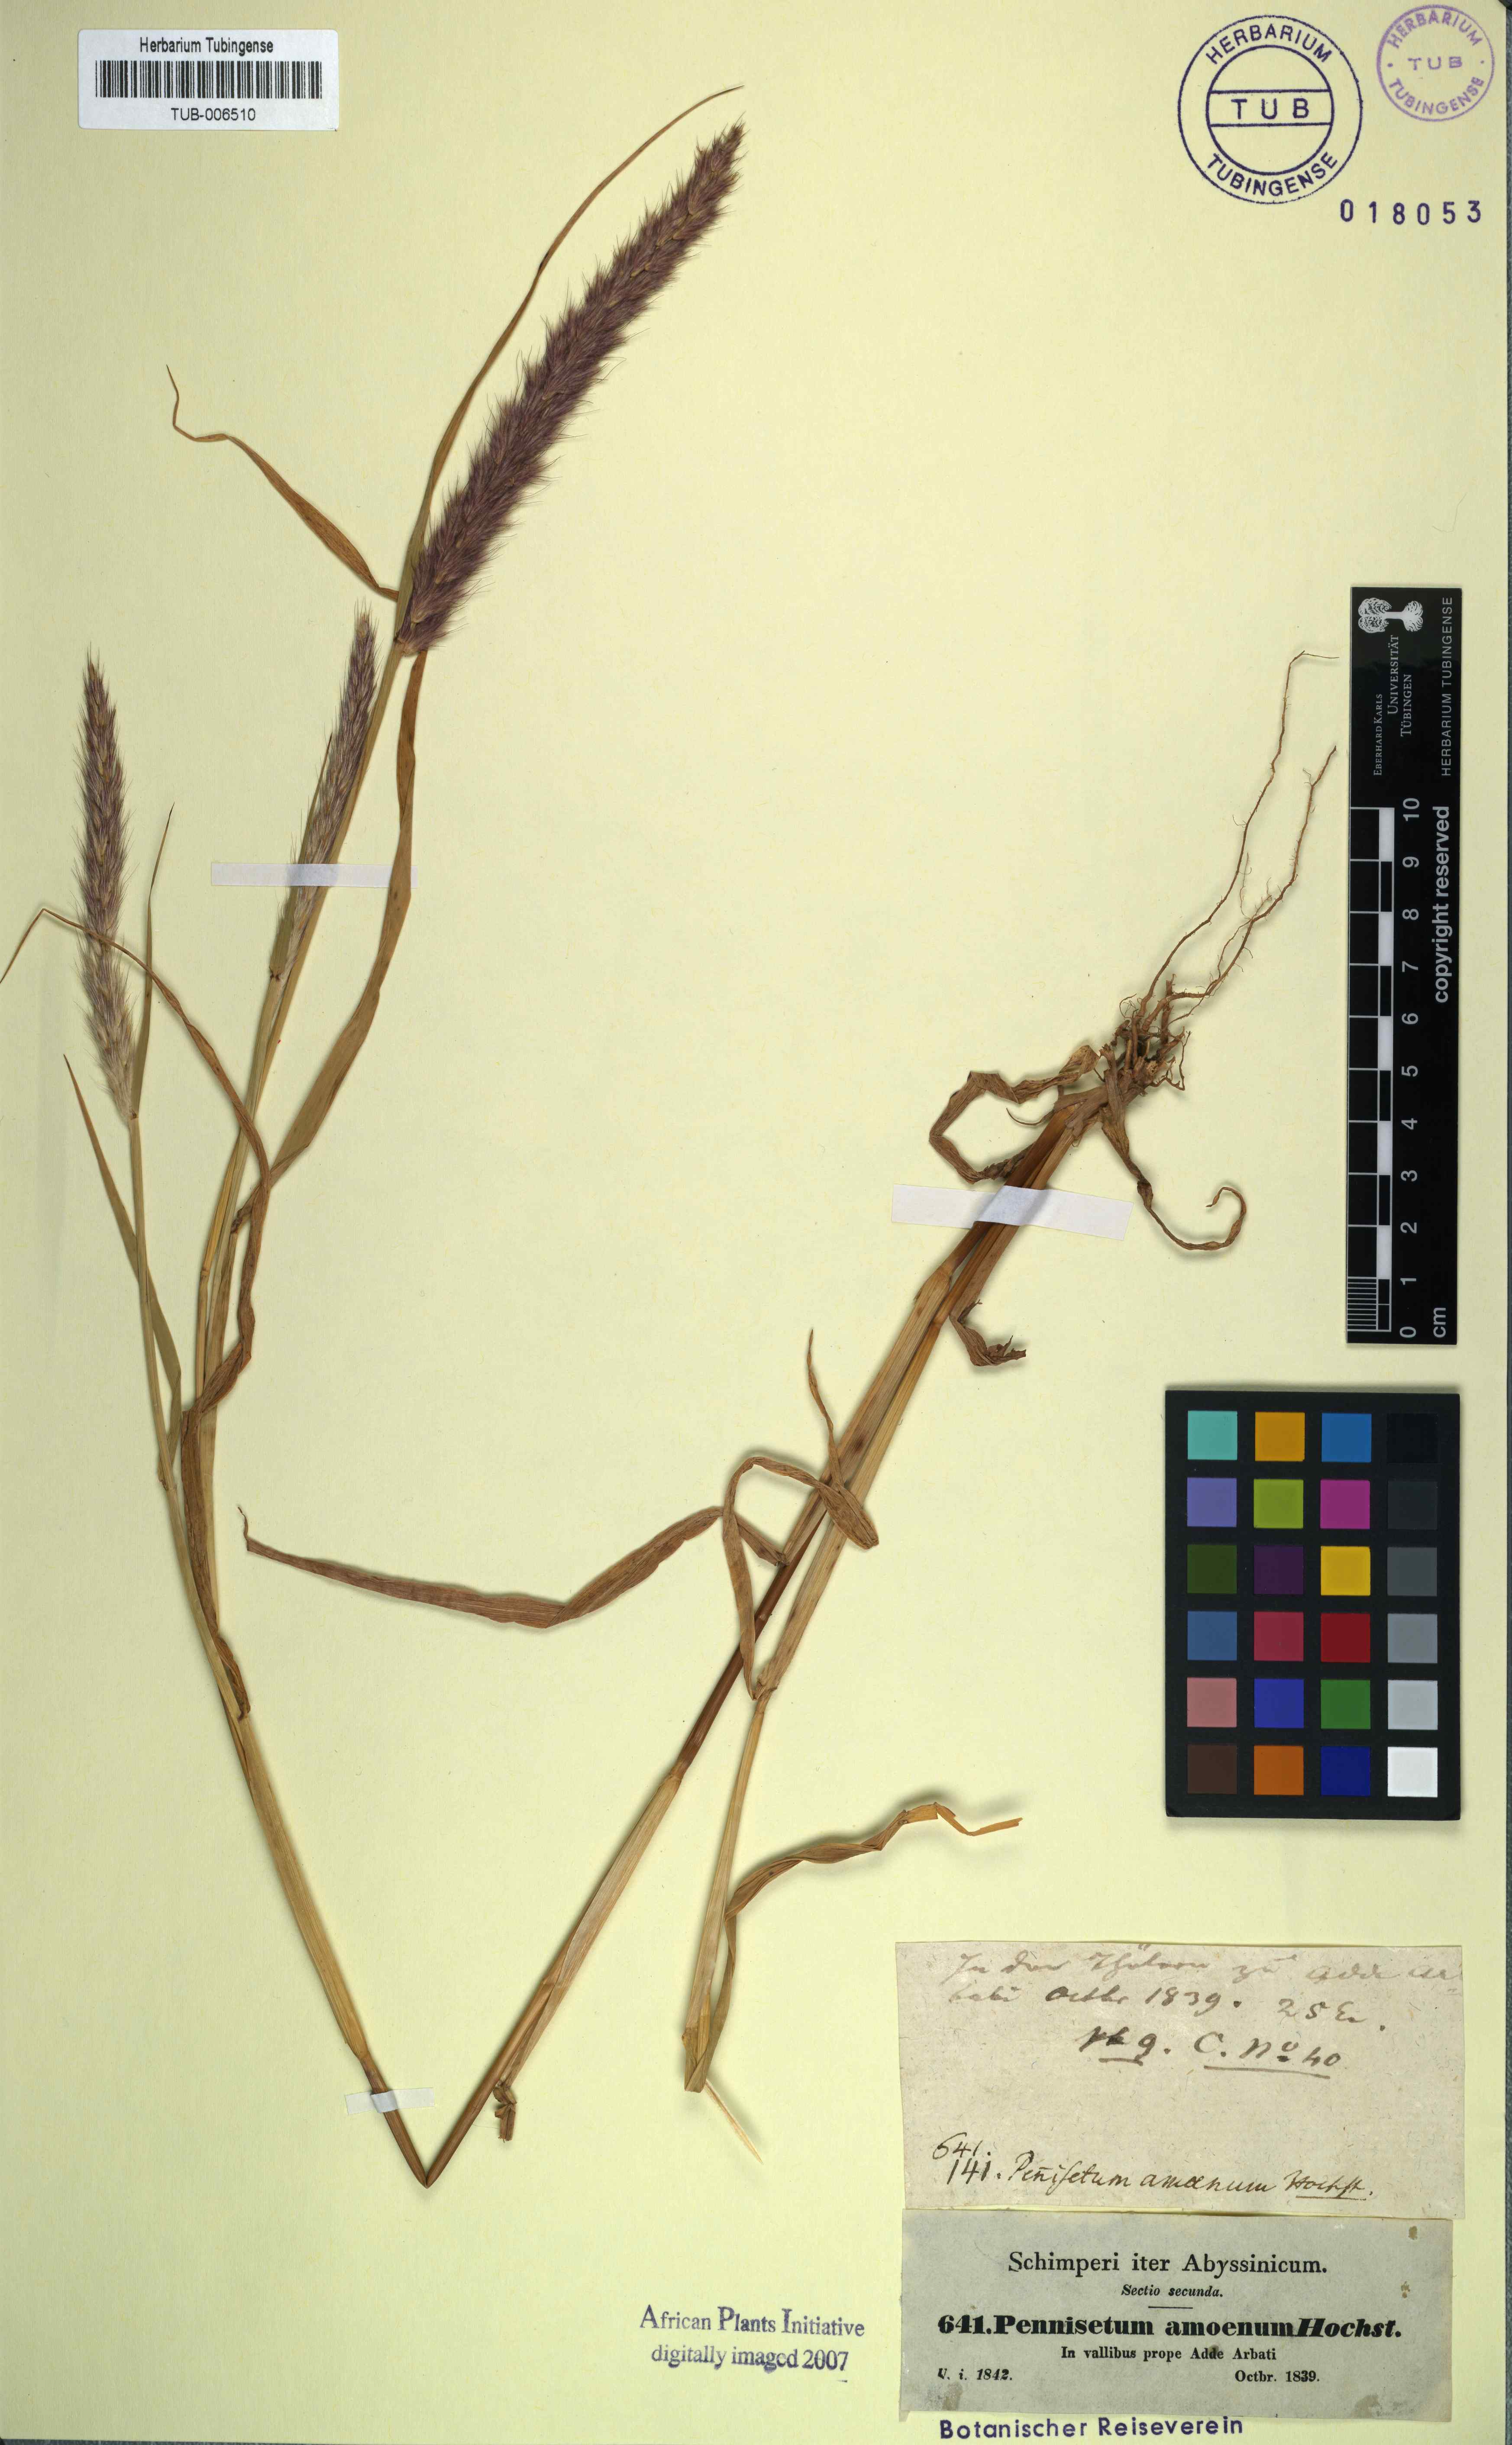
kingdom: Plantae
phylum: Tracheophyta
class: Liliopsida
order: Poales
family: Poaceae
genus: Cenchrus
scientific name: Cenchrus pedicellatus
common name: Hairy fountain grass
